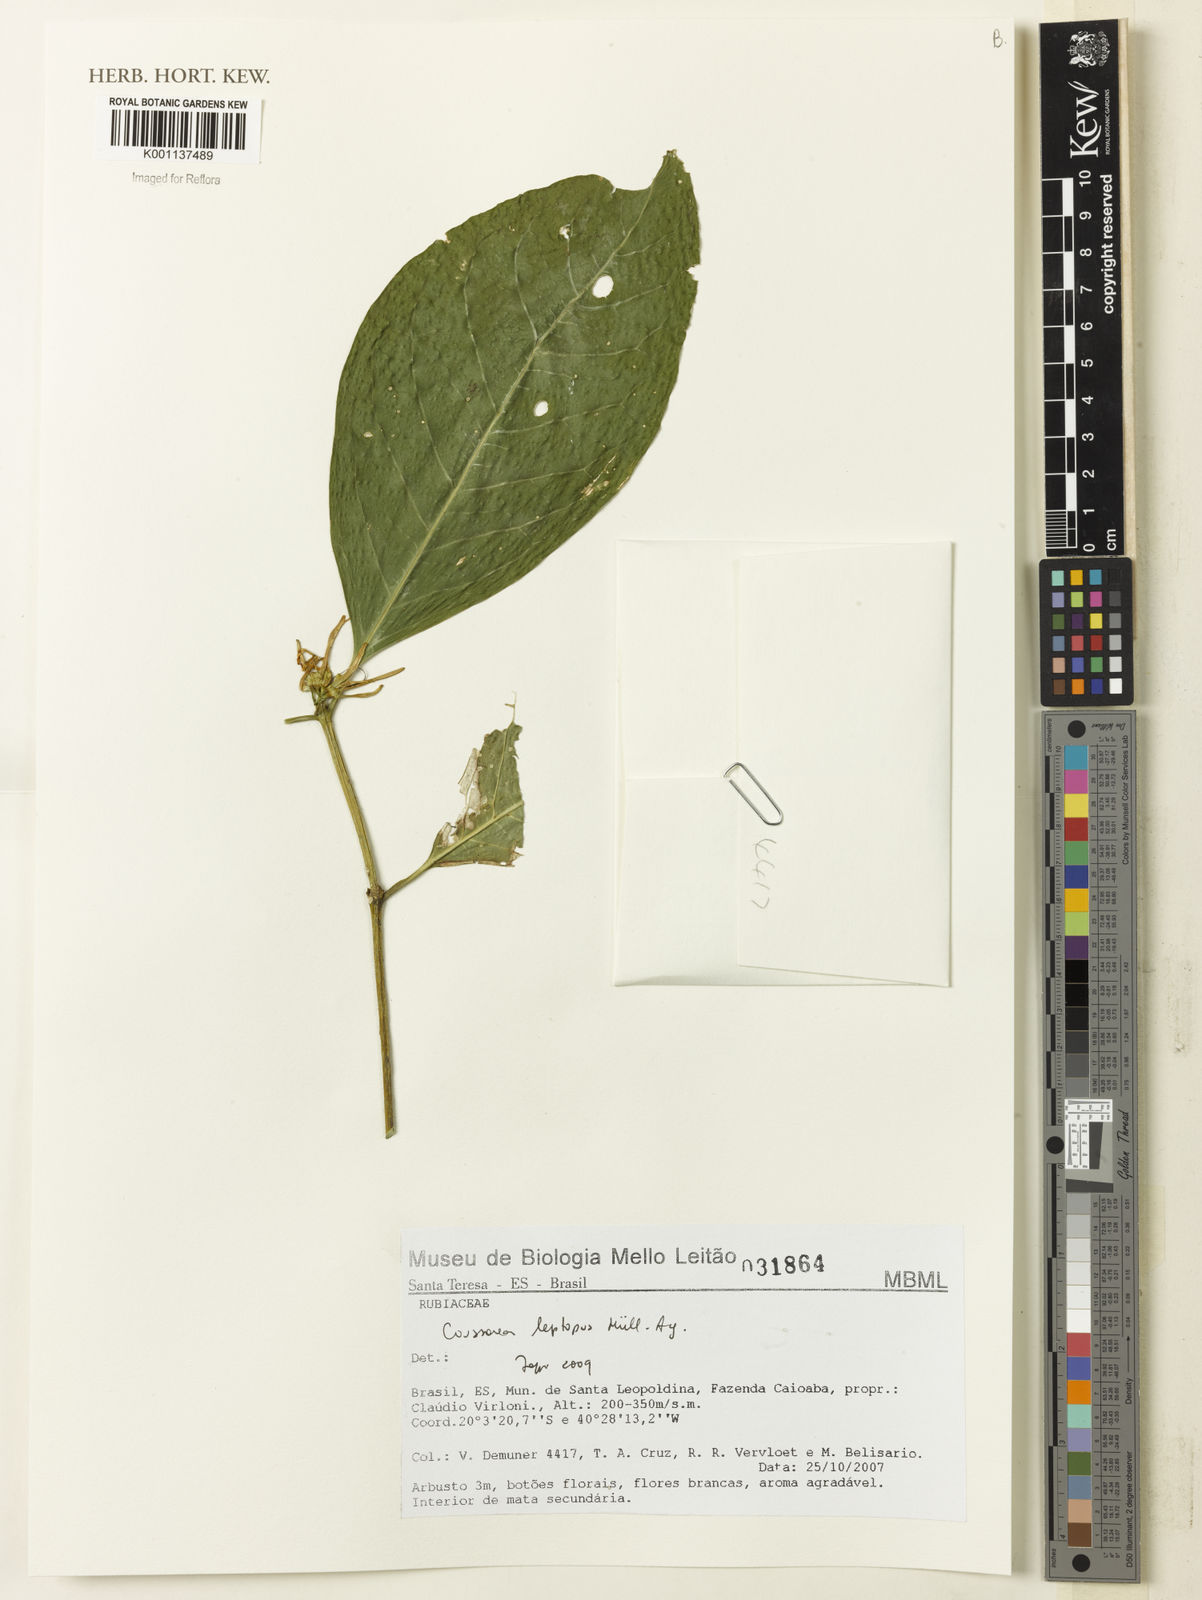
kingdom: Plantae
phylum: Tracheophyta
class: Magnoliopsida
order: Gentianales
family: Rubiaceae
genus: Coussarea
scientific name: Coussarea
